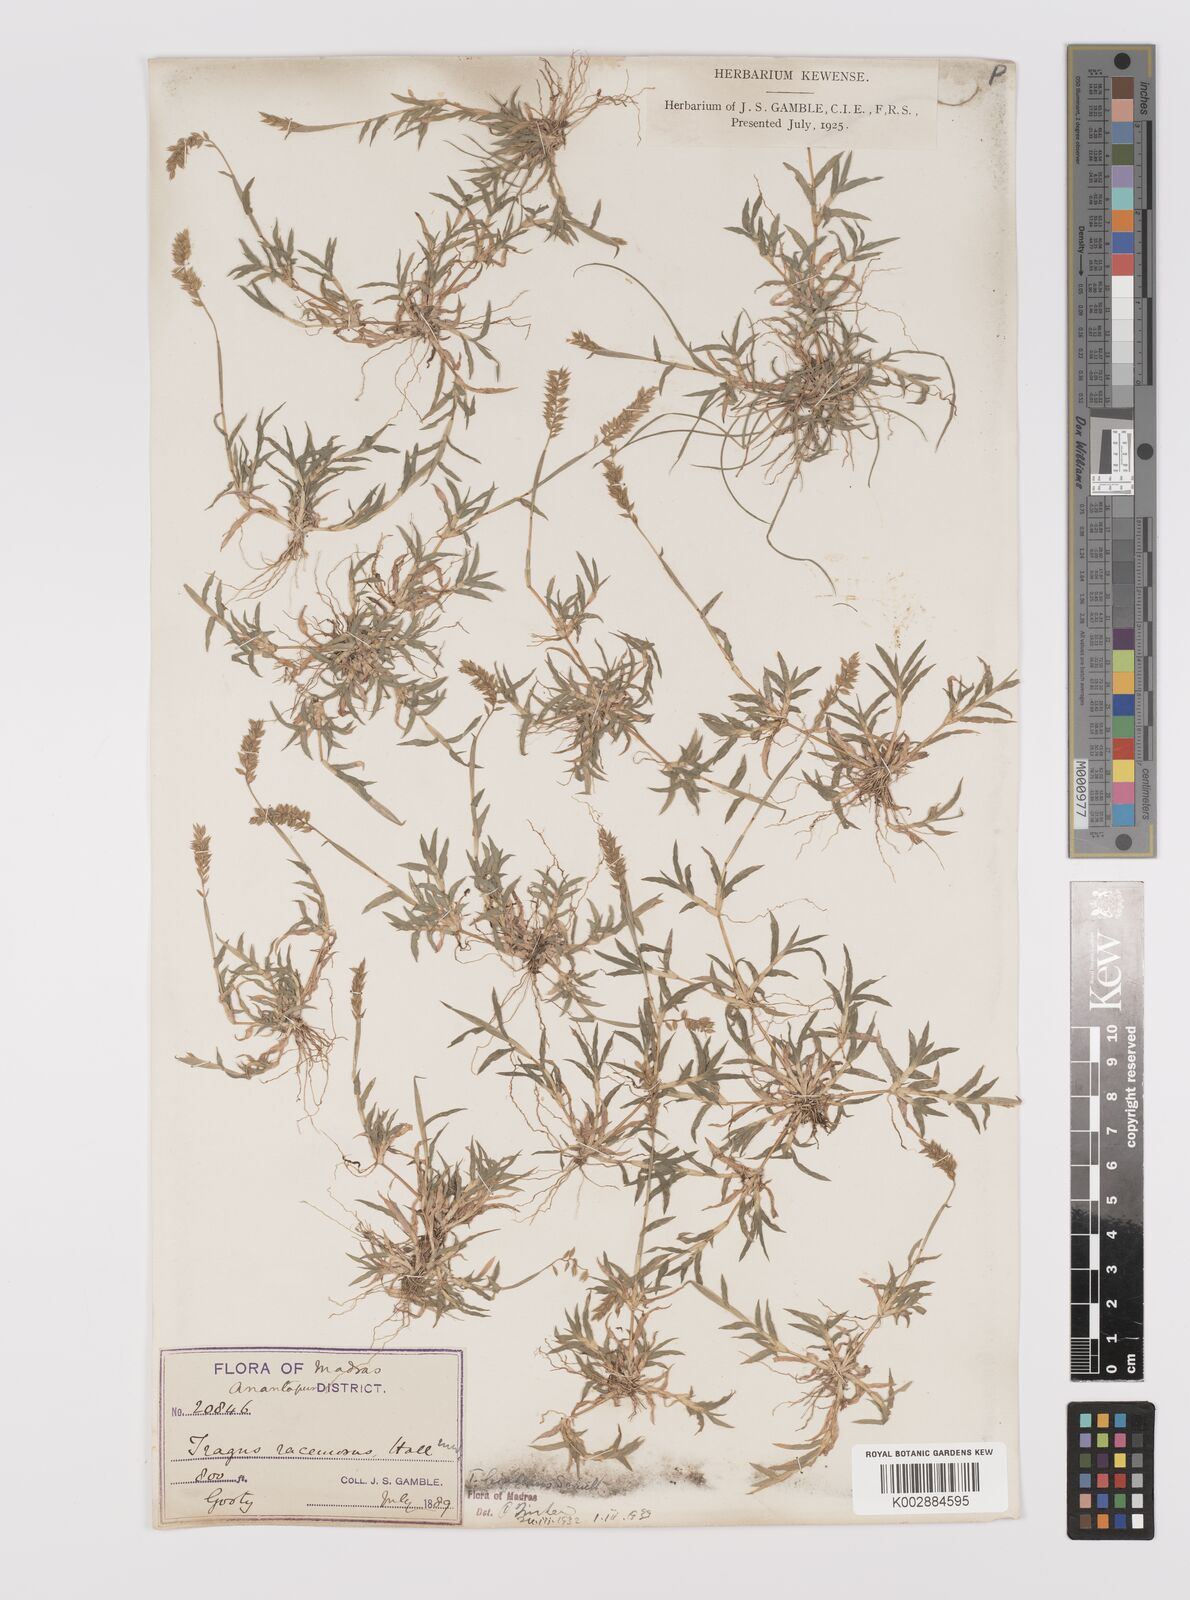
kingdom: Plantae
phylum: Tracheophyta
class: Liliopsida
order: Poales
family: Poaceae
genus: Tragus
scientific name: Tragus mongolorum
